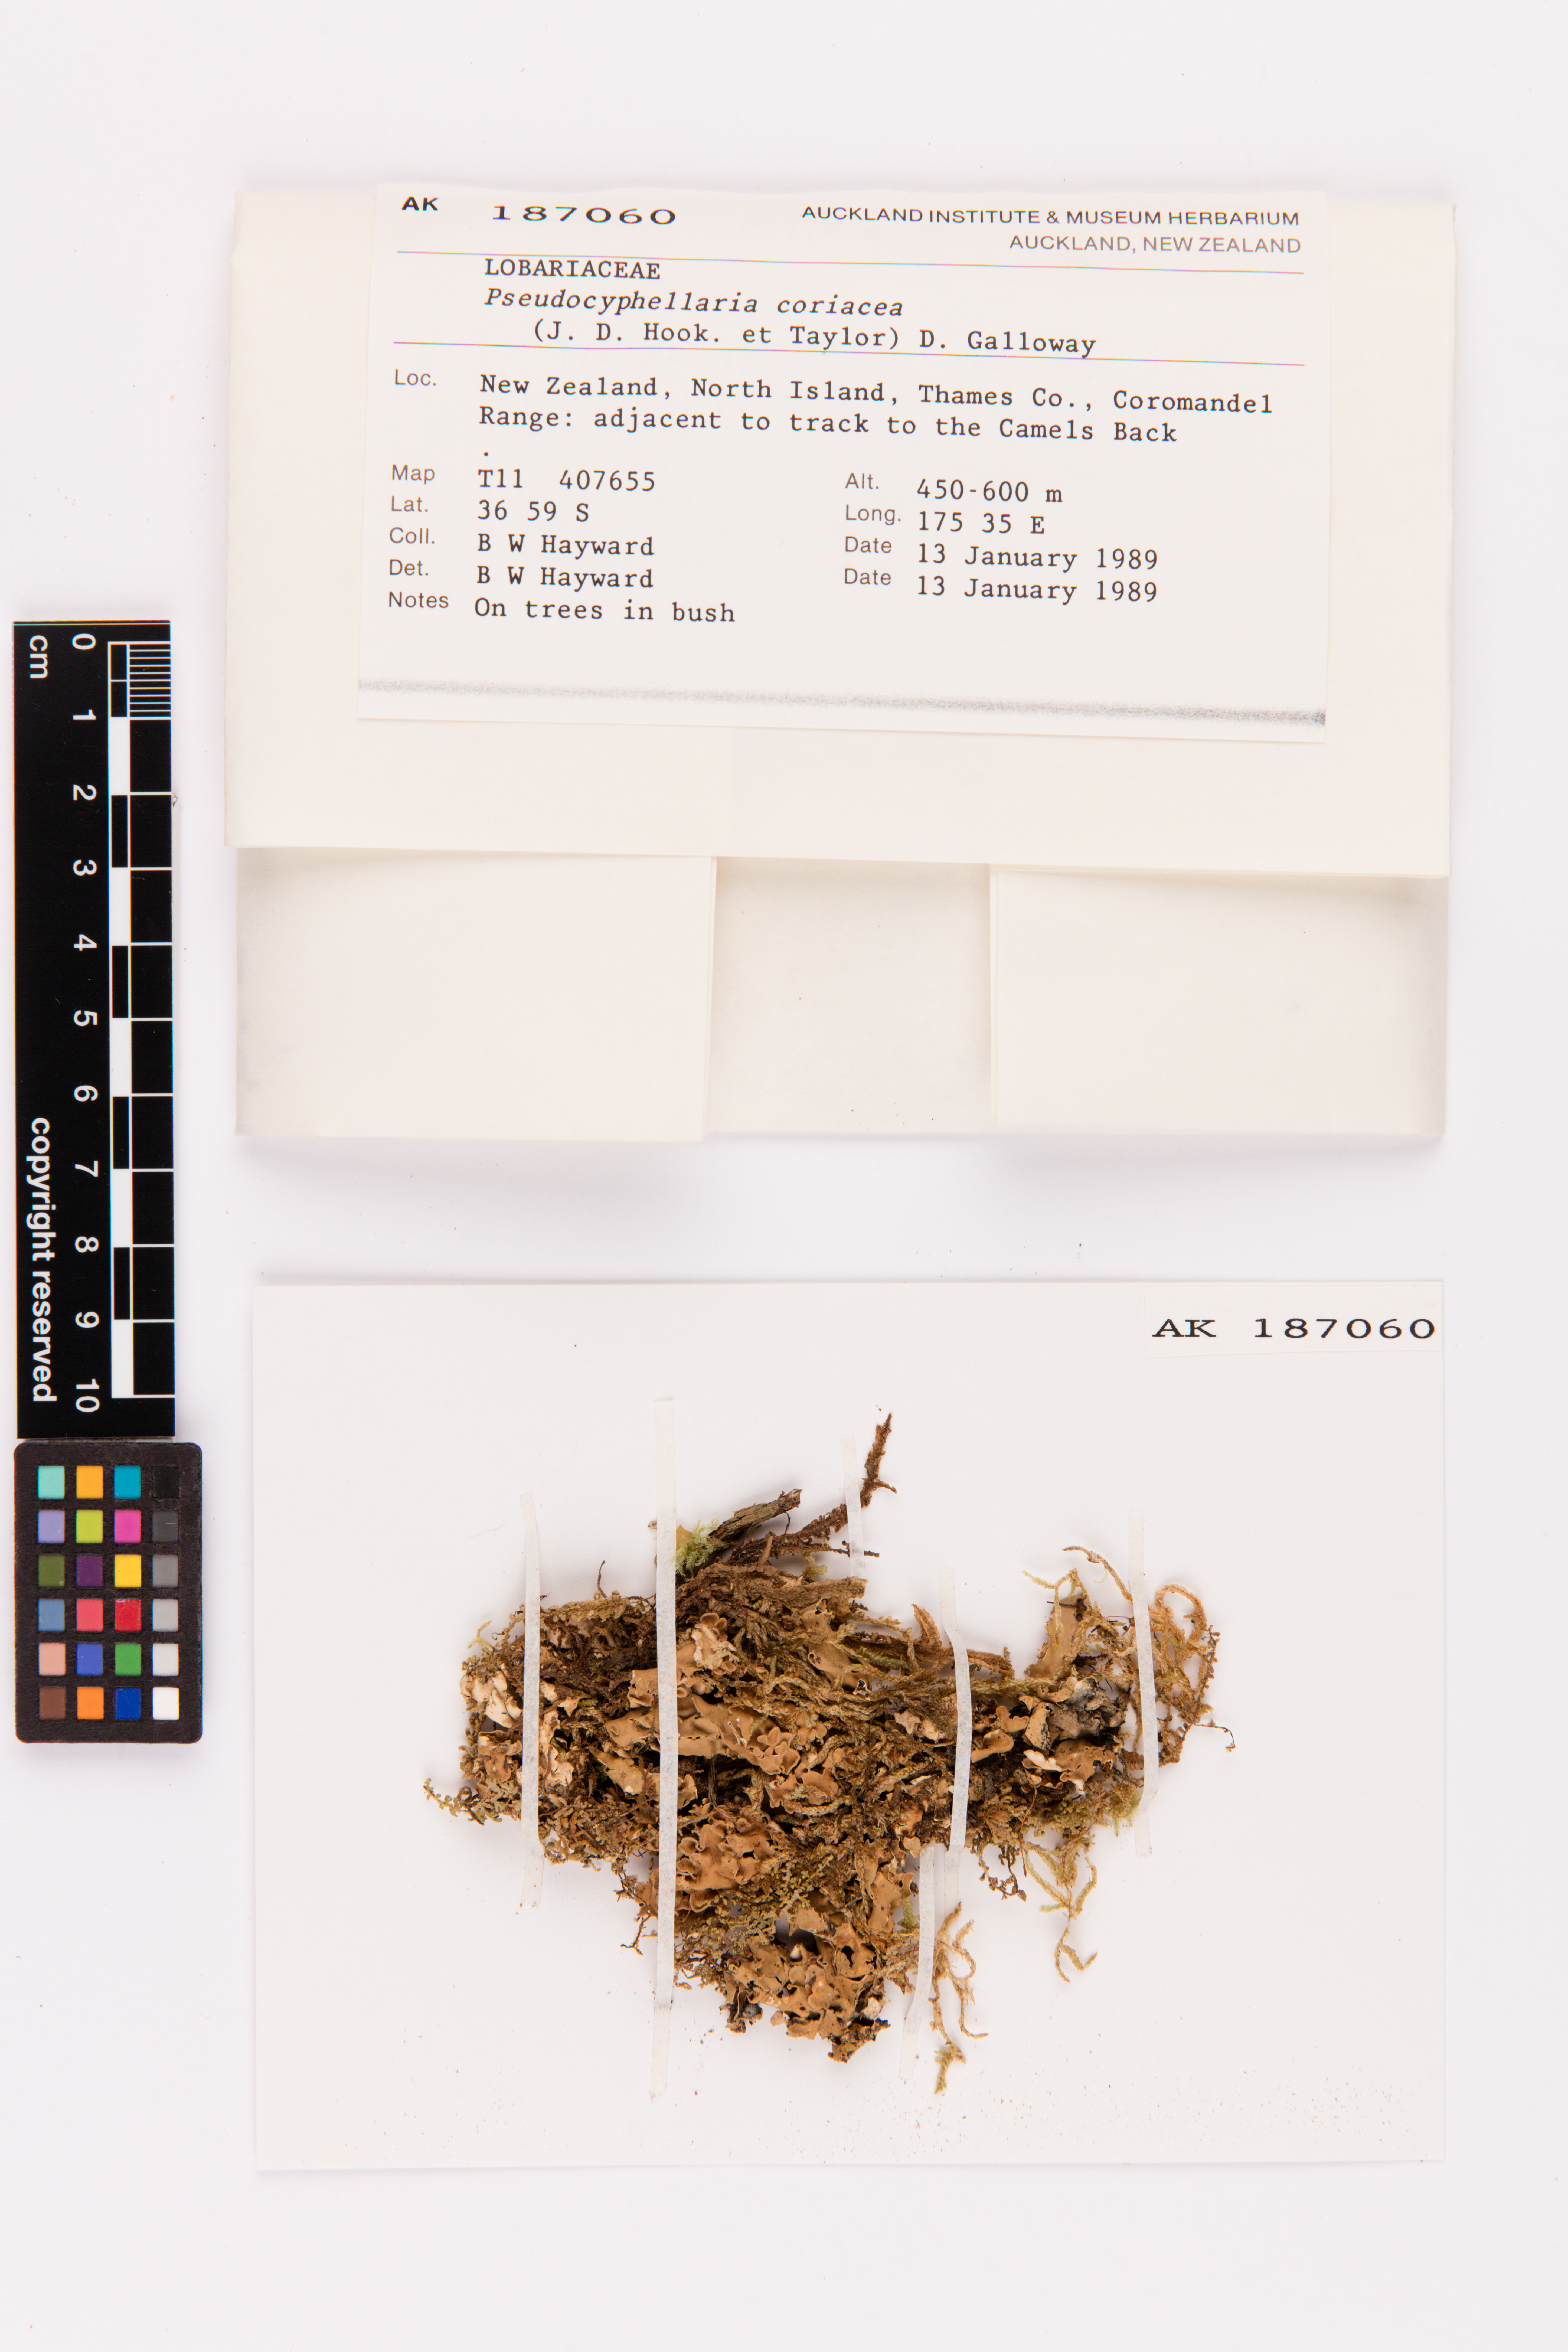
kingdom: Fungi
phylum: Ascomycota
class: Lecanoromycetes
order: Peltigerales
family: Lobariaceae
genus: Pseudocyphellaria
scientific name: Pseudocyphellaria coriacea
